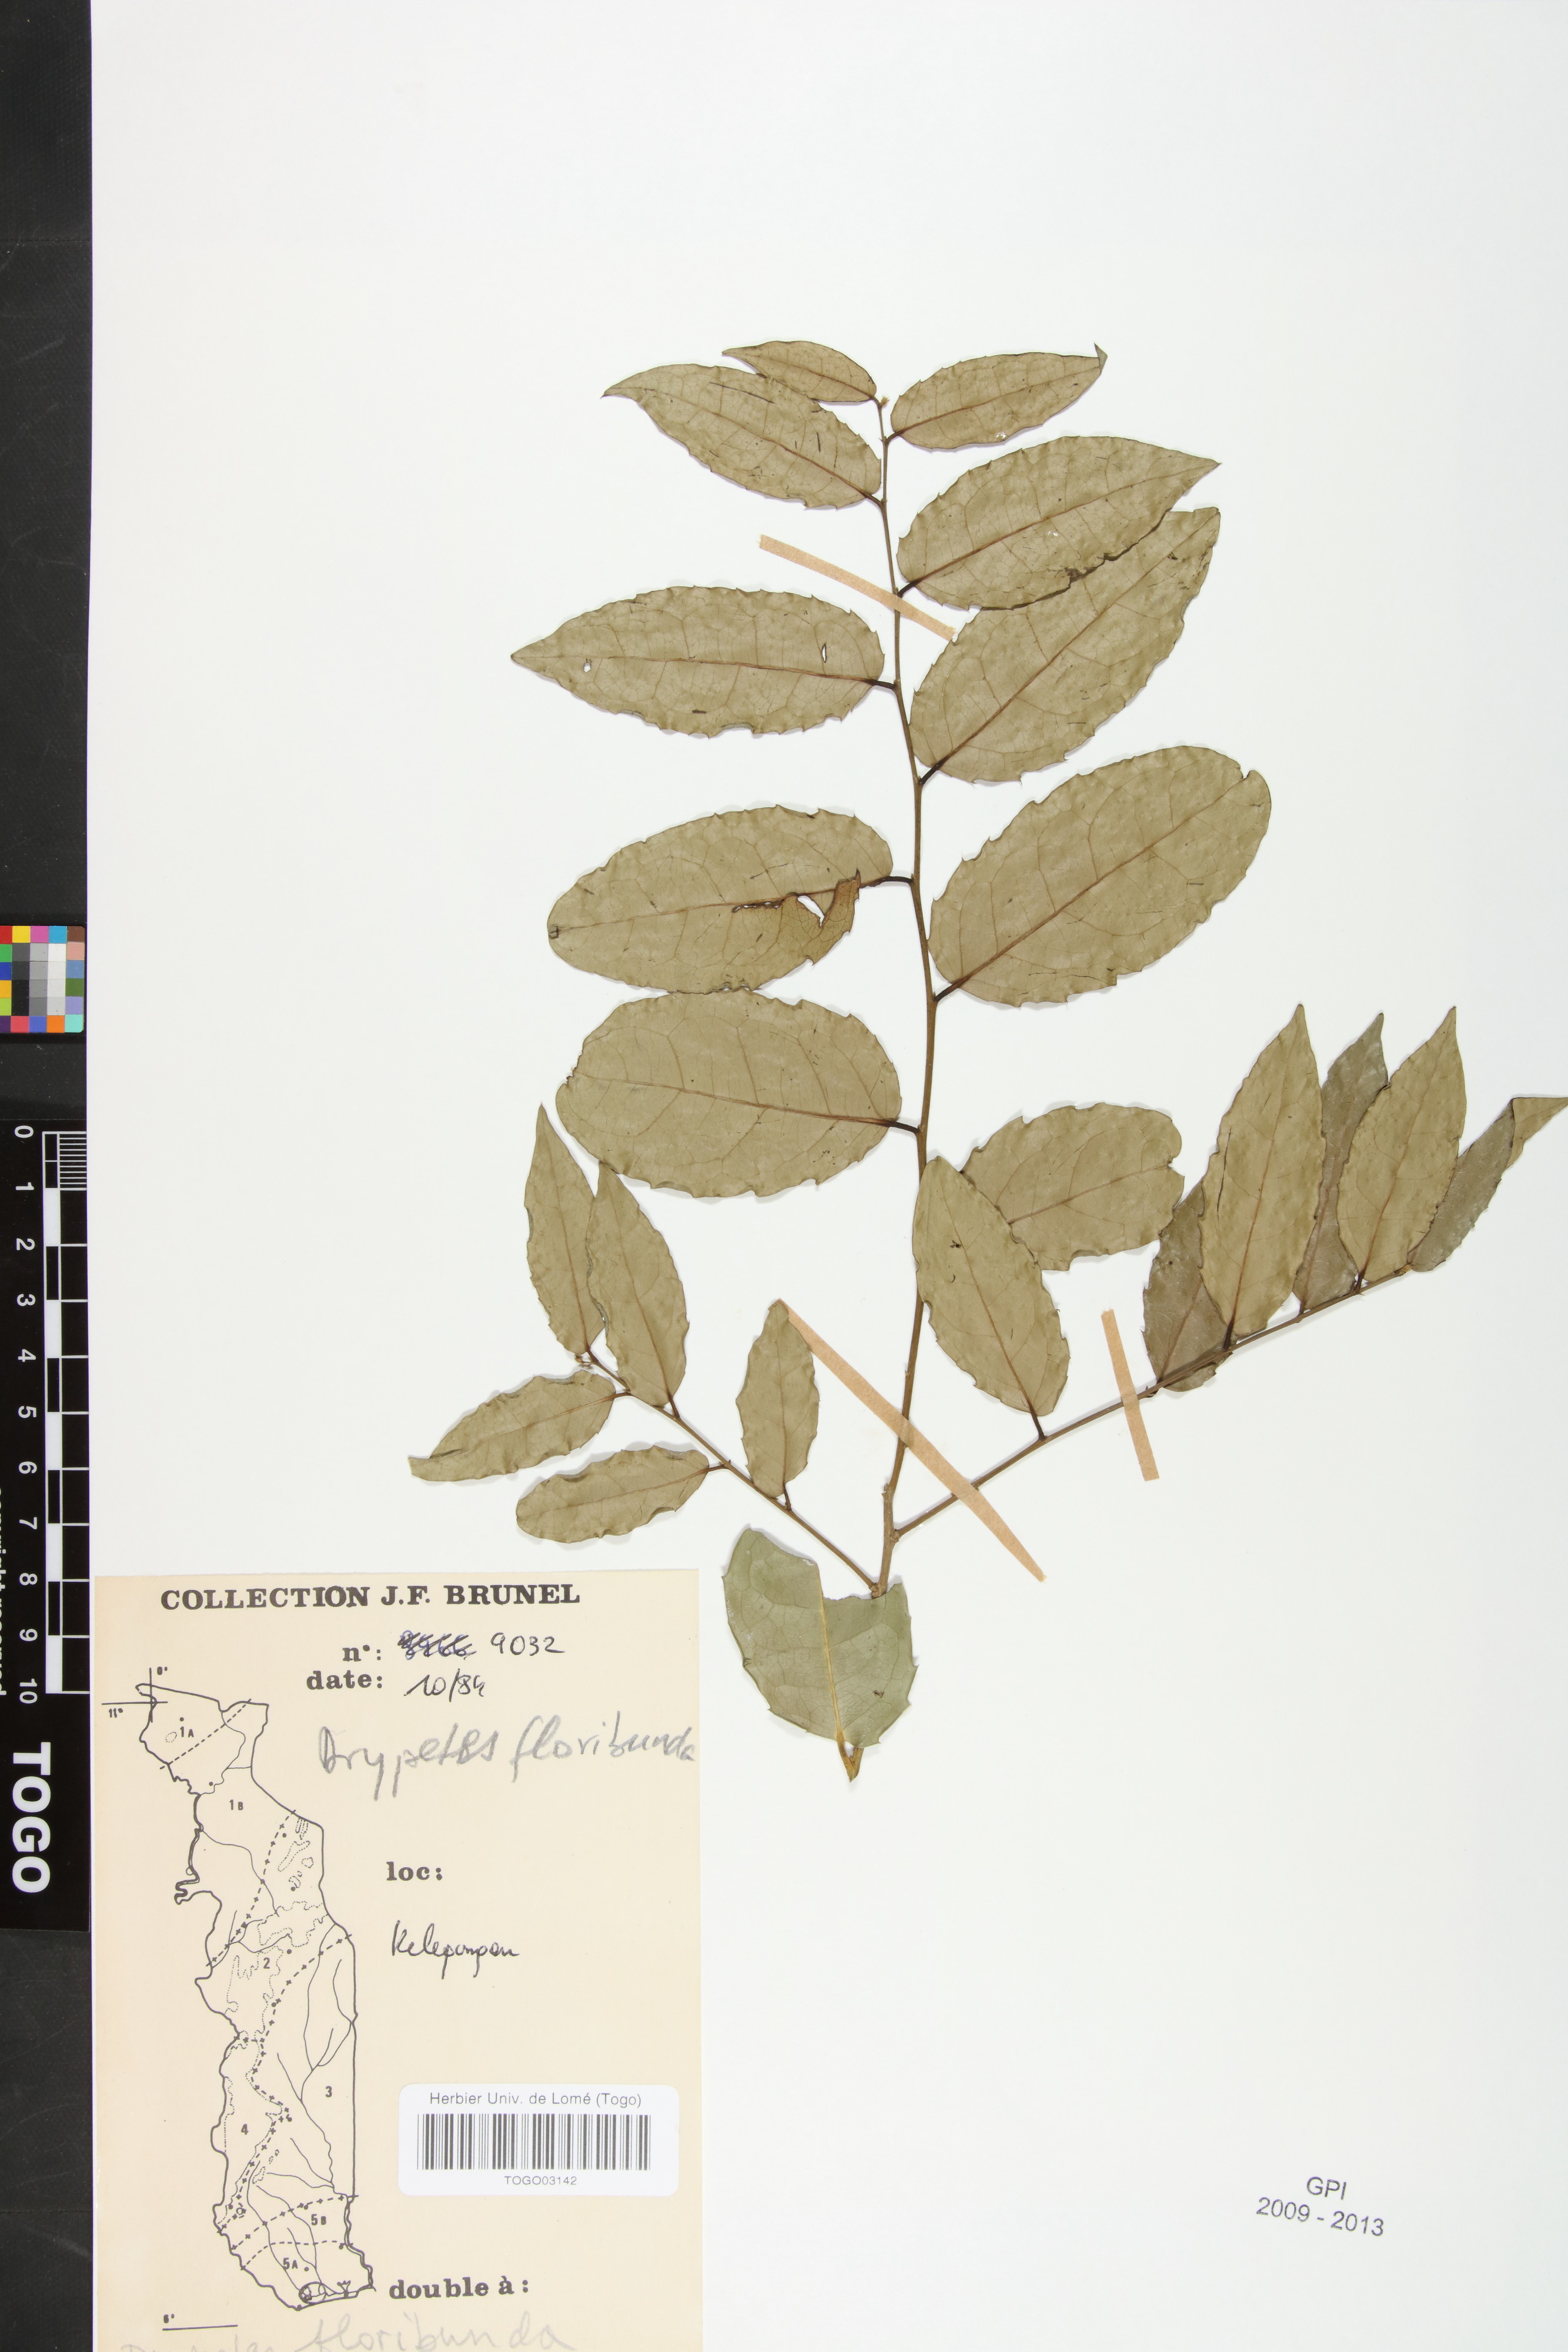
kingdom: Plantae
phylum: Tracheophyta
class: Magnoliopsida
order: Malpighiales
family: Putranjivaceae
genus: Drypetes
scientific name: Drypetes floribunda
